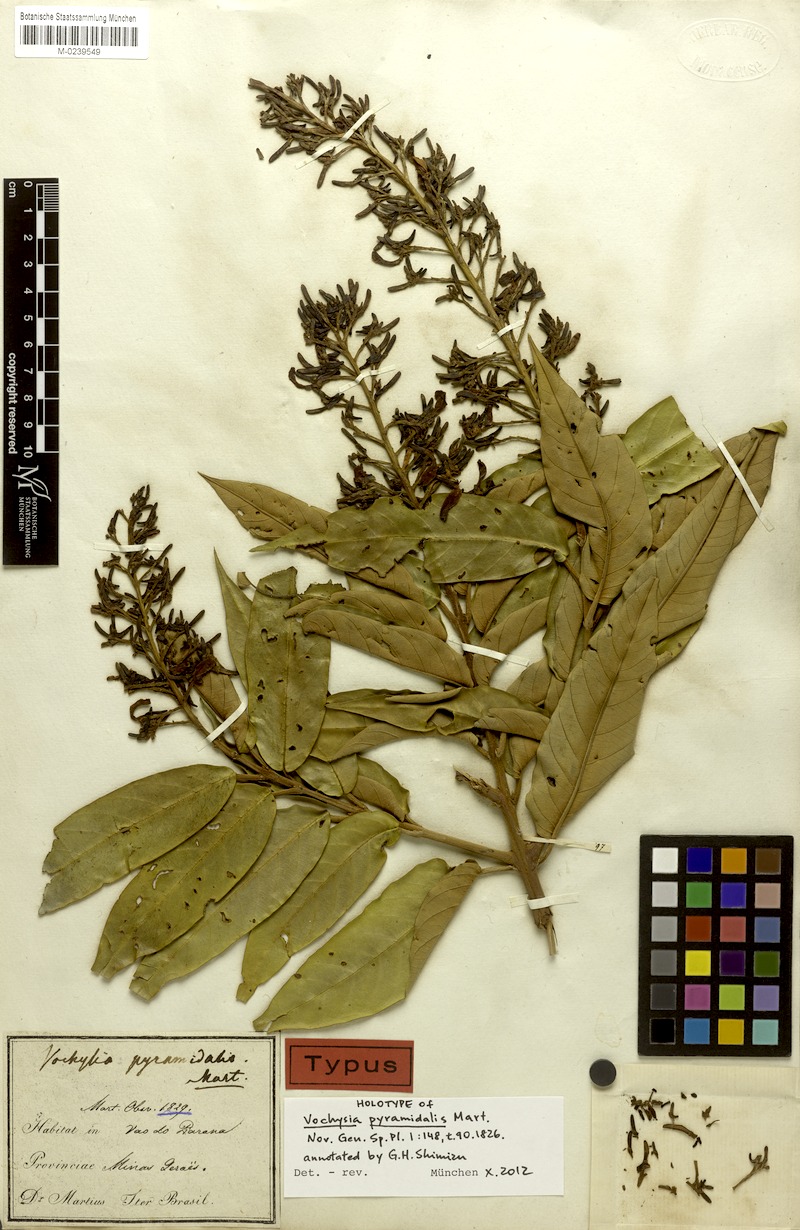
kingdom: Plantae
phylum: Tracheophyta
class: Magnoliopsida
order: Myrtales
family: Vochysiaceae
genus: Vochysia
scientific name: Vochysia pyramidalis
